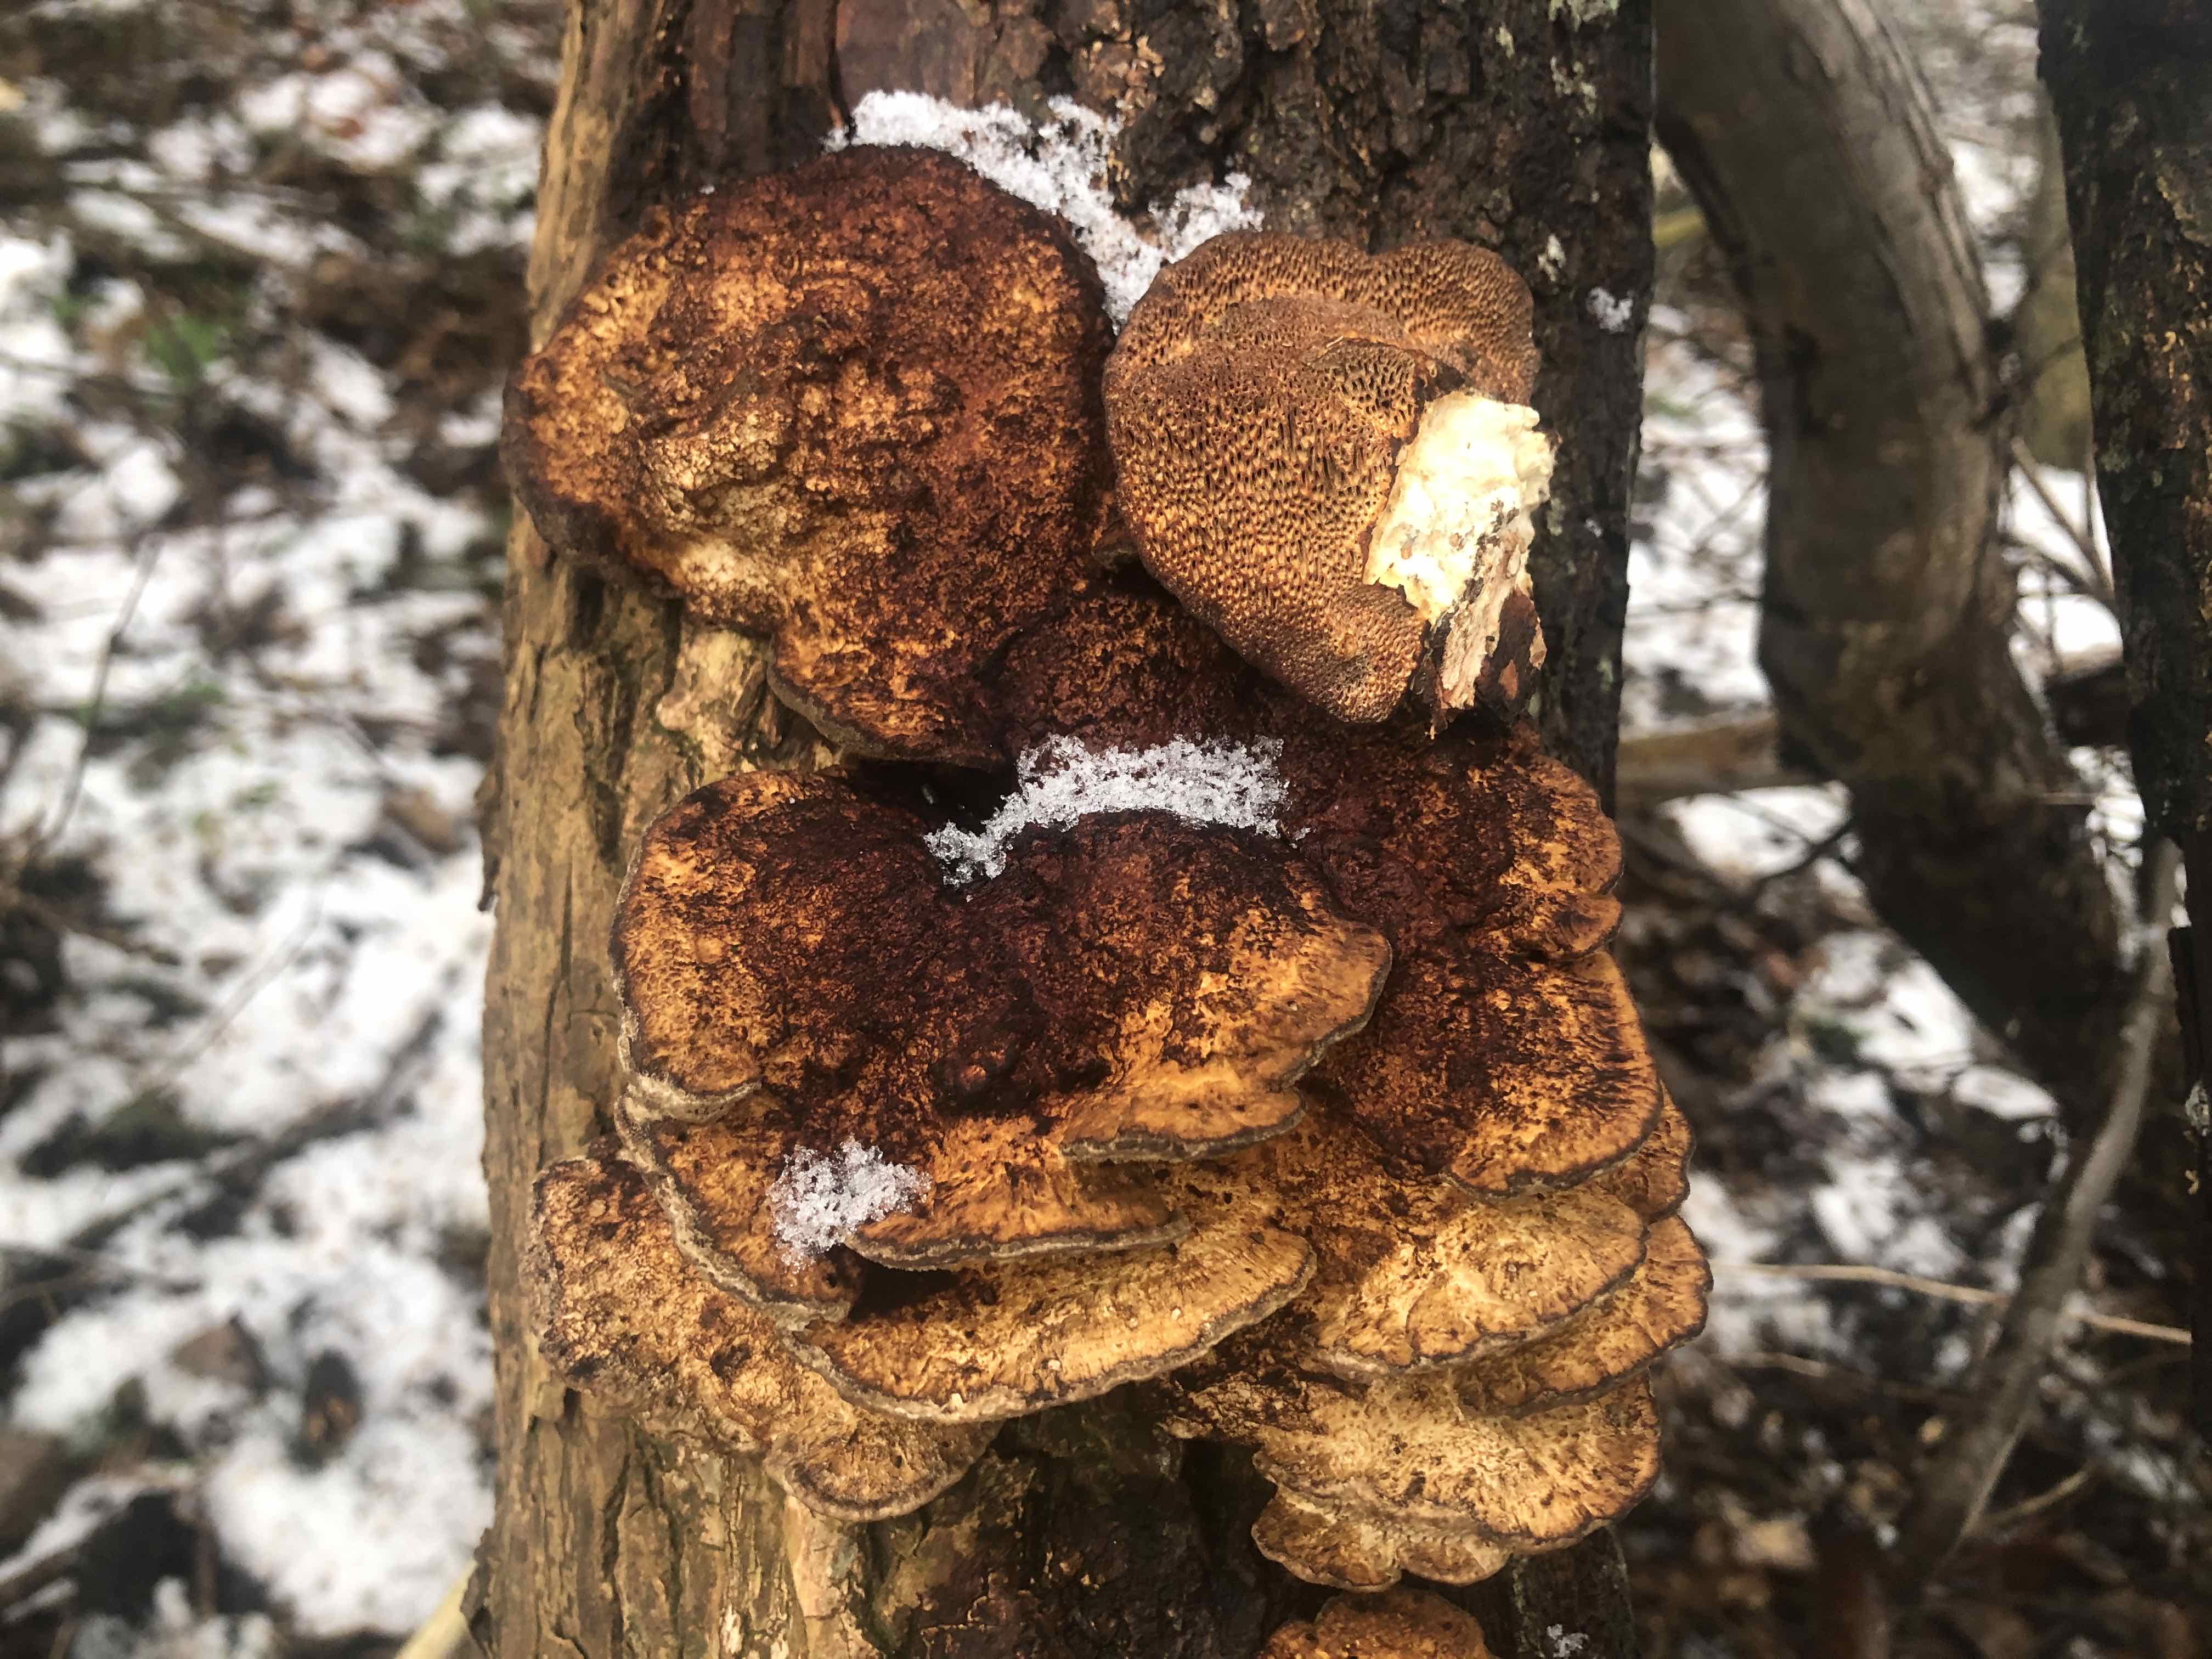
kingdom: Fungi
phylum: Basidiomycota
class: Agaricomycetes
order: Polyporales
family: Polyporaceae
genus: Daedaleopsis
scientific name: Daedaleopsis confragosa
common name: rødmende læderporesvamp
